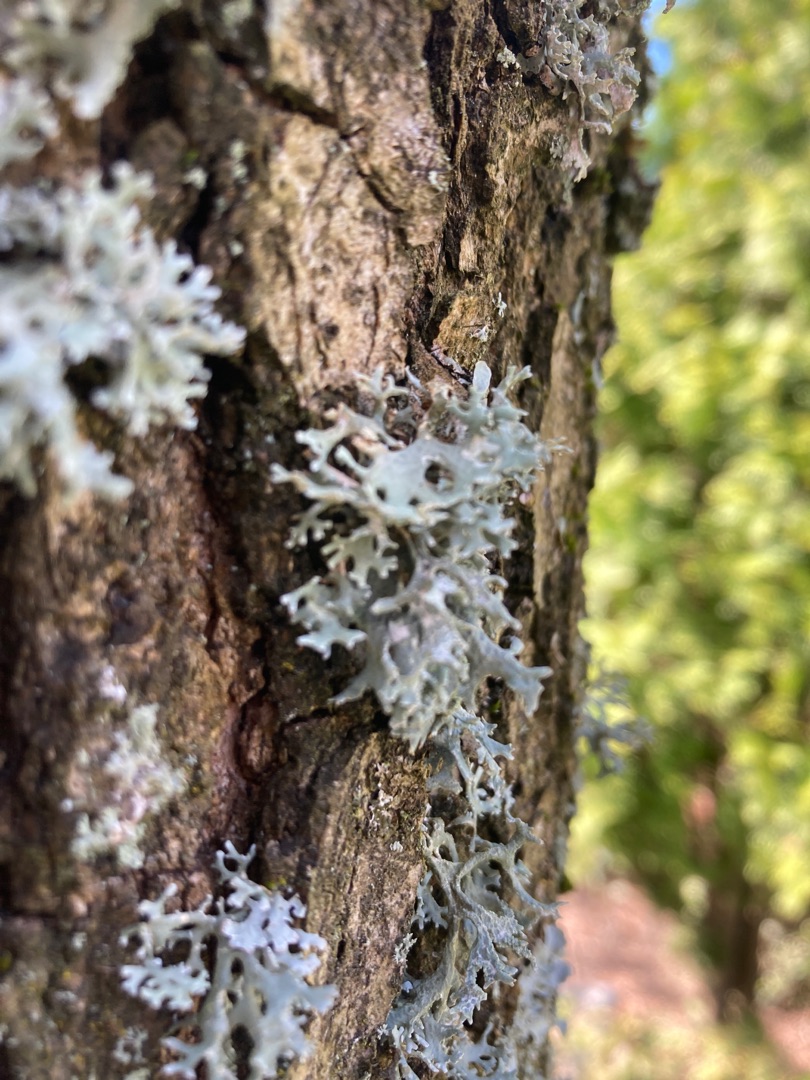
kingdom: Fungi
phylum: Ascomycota
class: Lecanoromycetes
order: Lecanorales
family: Parmeliaceae
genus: Evernia
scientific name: Evernia prunastri
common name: Almindelig slåenlav
